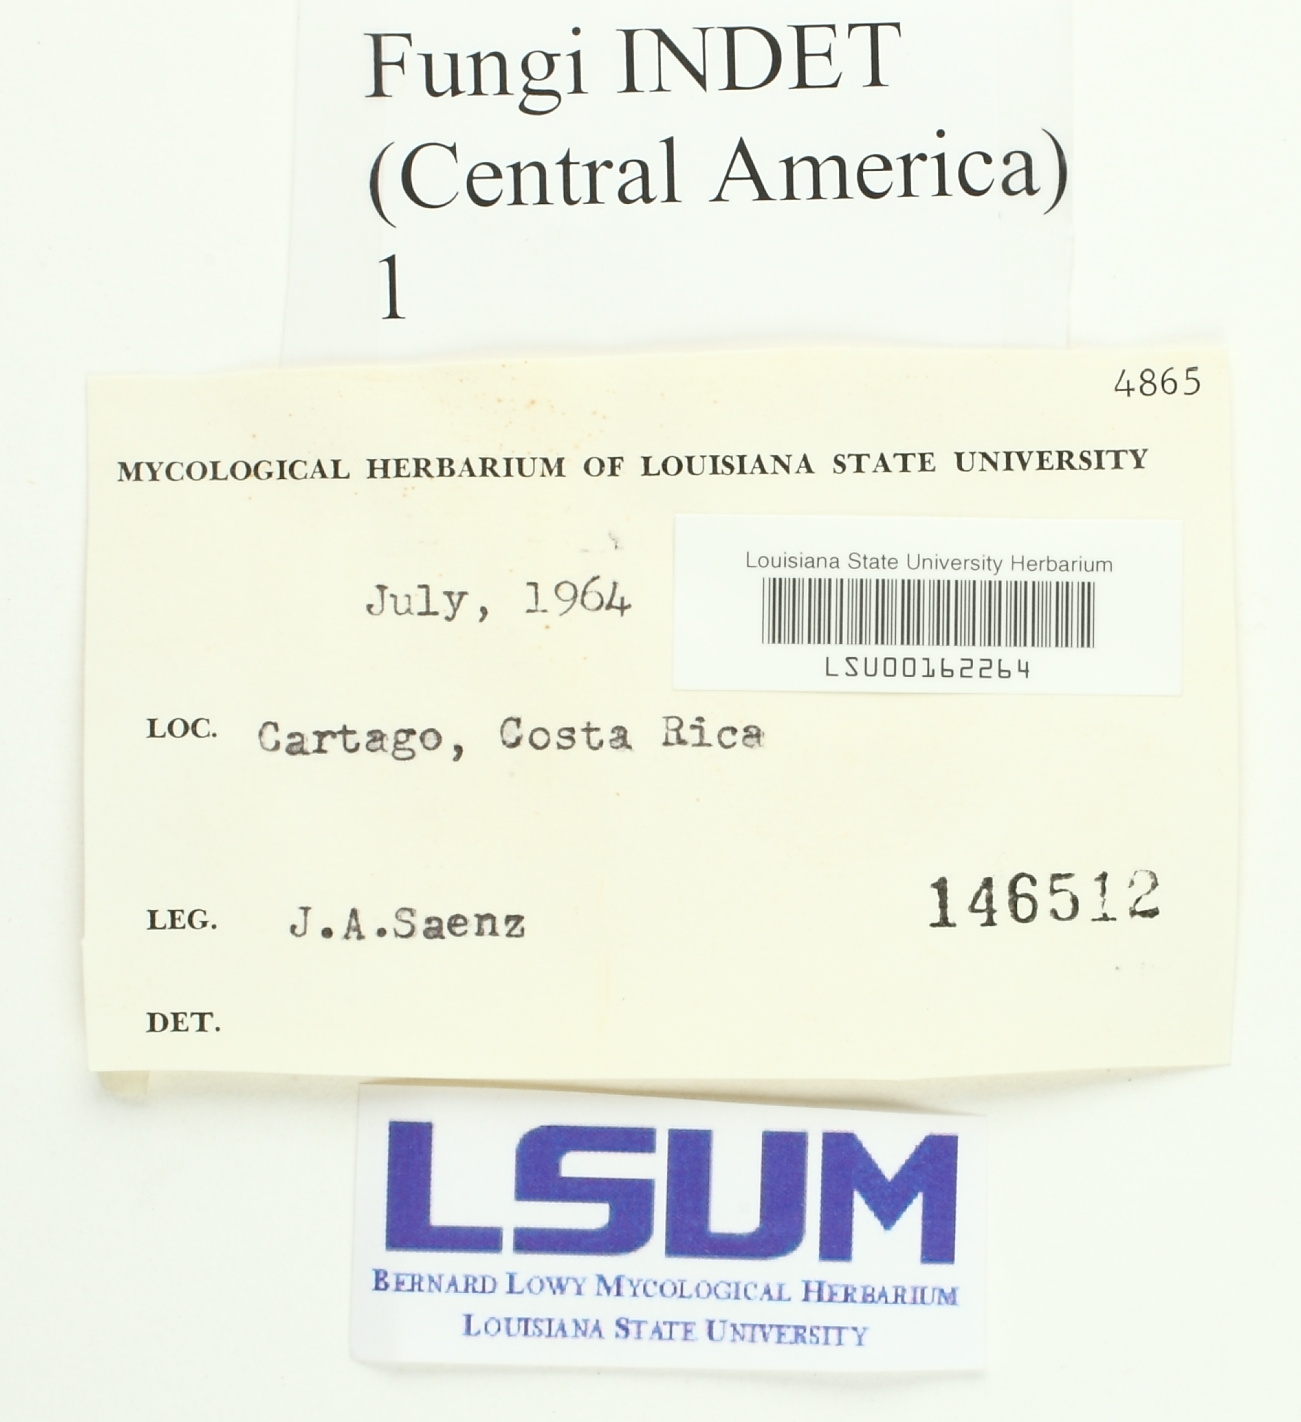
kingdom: Fungi
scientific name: Fungi
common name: Fungi
